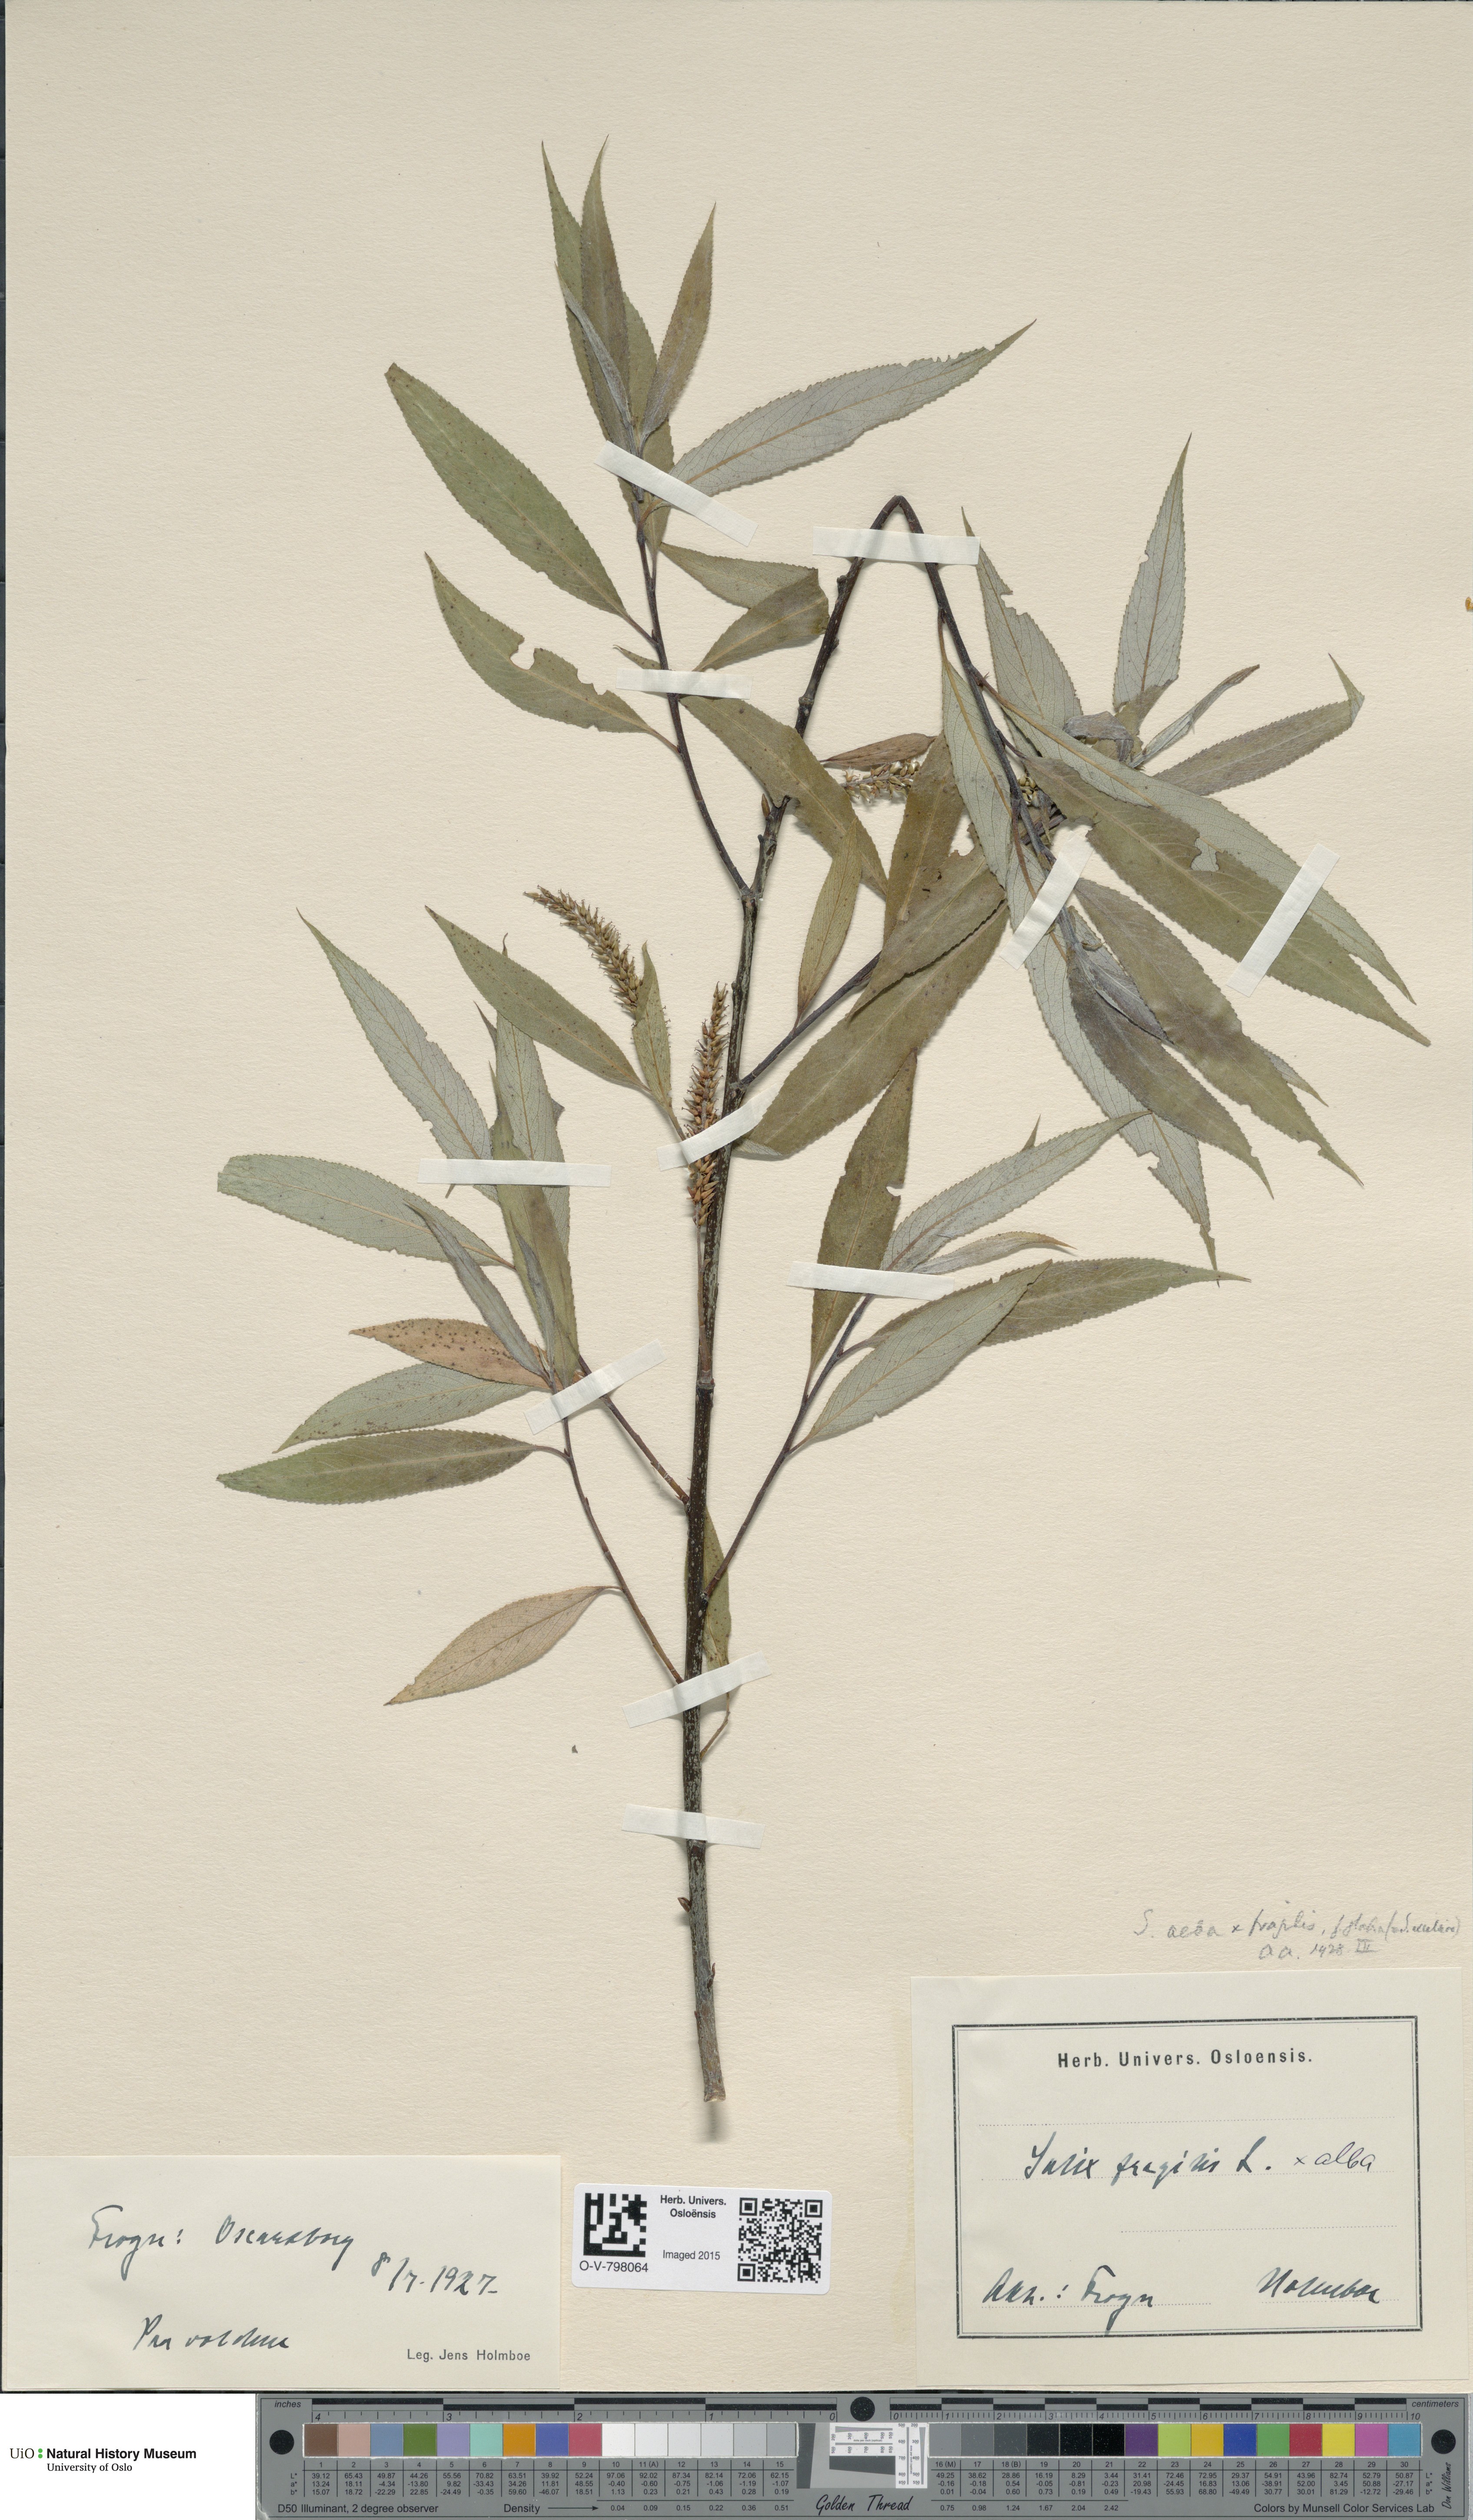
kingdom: Plantae
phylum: Tracheophyta
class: Magnoliopsida
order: Malpighiales
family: Salicaceae
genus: Salix
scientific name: Salix
